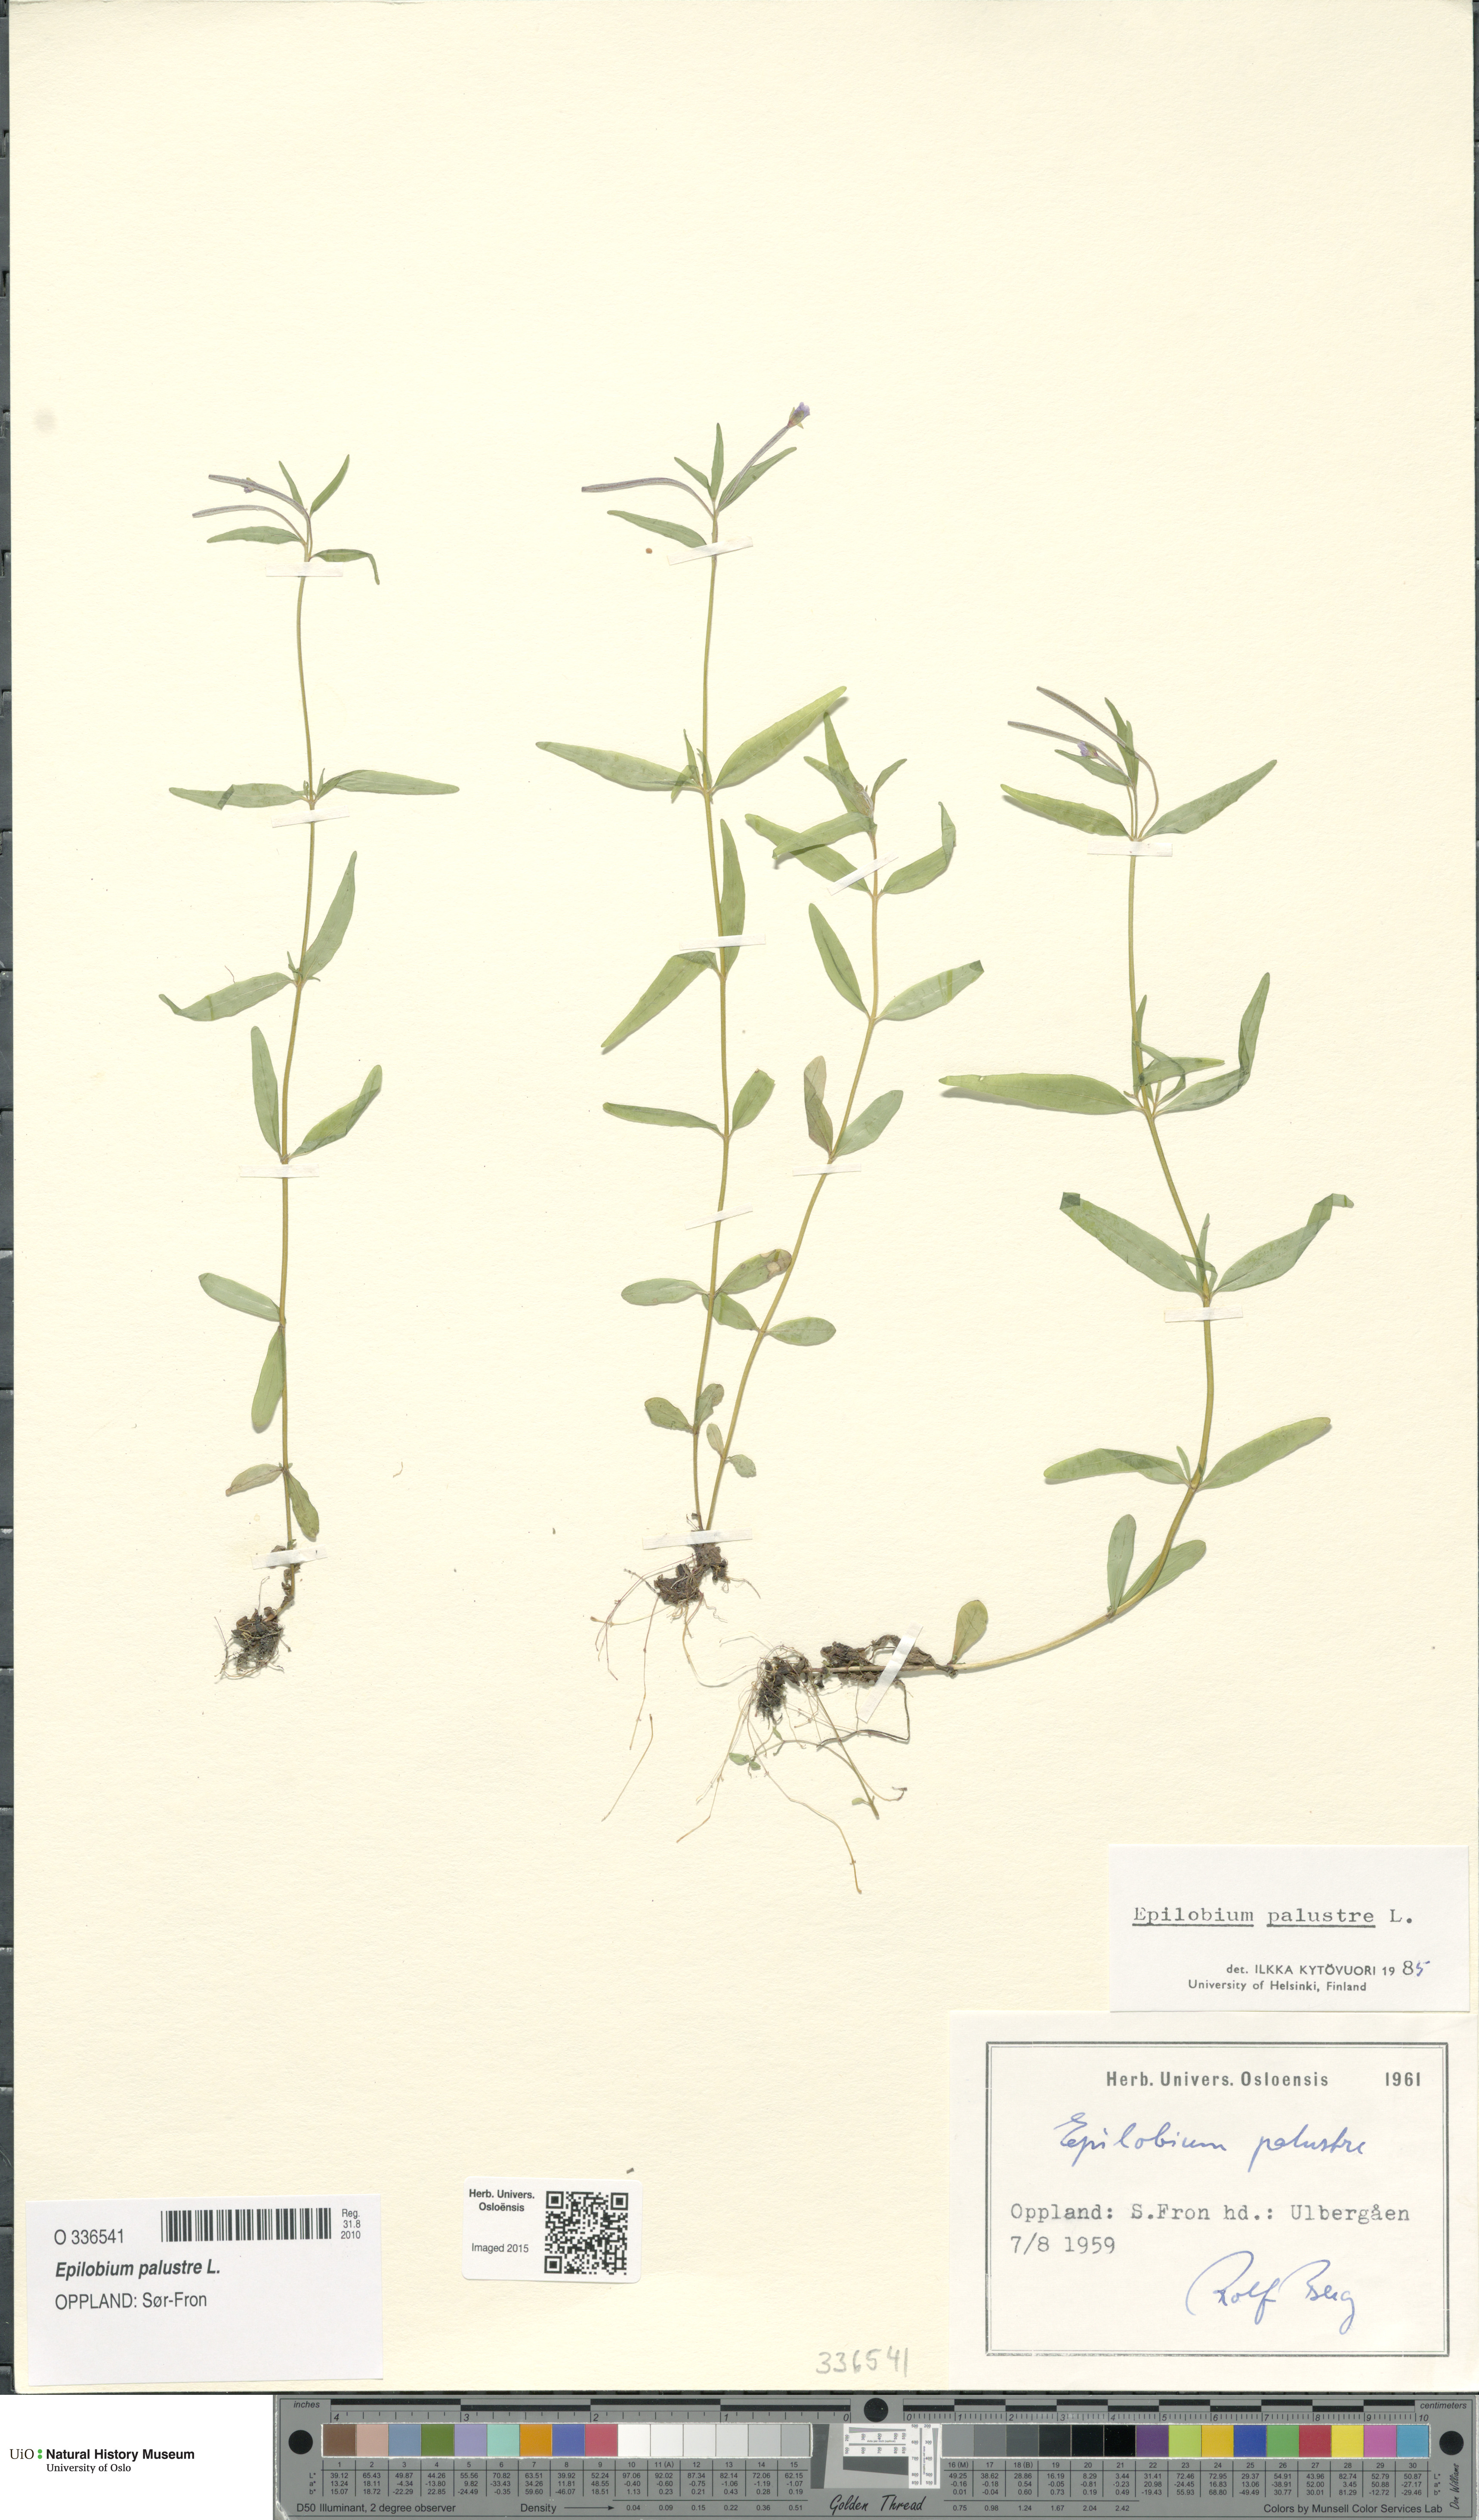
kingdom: Plantae
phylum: Tracheophyta
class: Magnoliopsida
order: Myrtales
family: Onagraceae
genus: Epilobium
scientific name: Epilobium palustre
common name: Marsh willowherb
